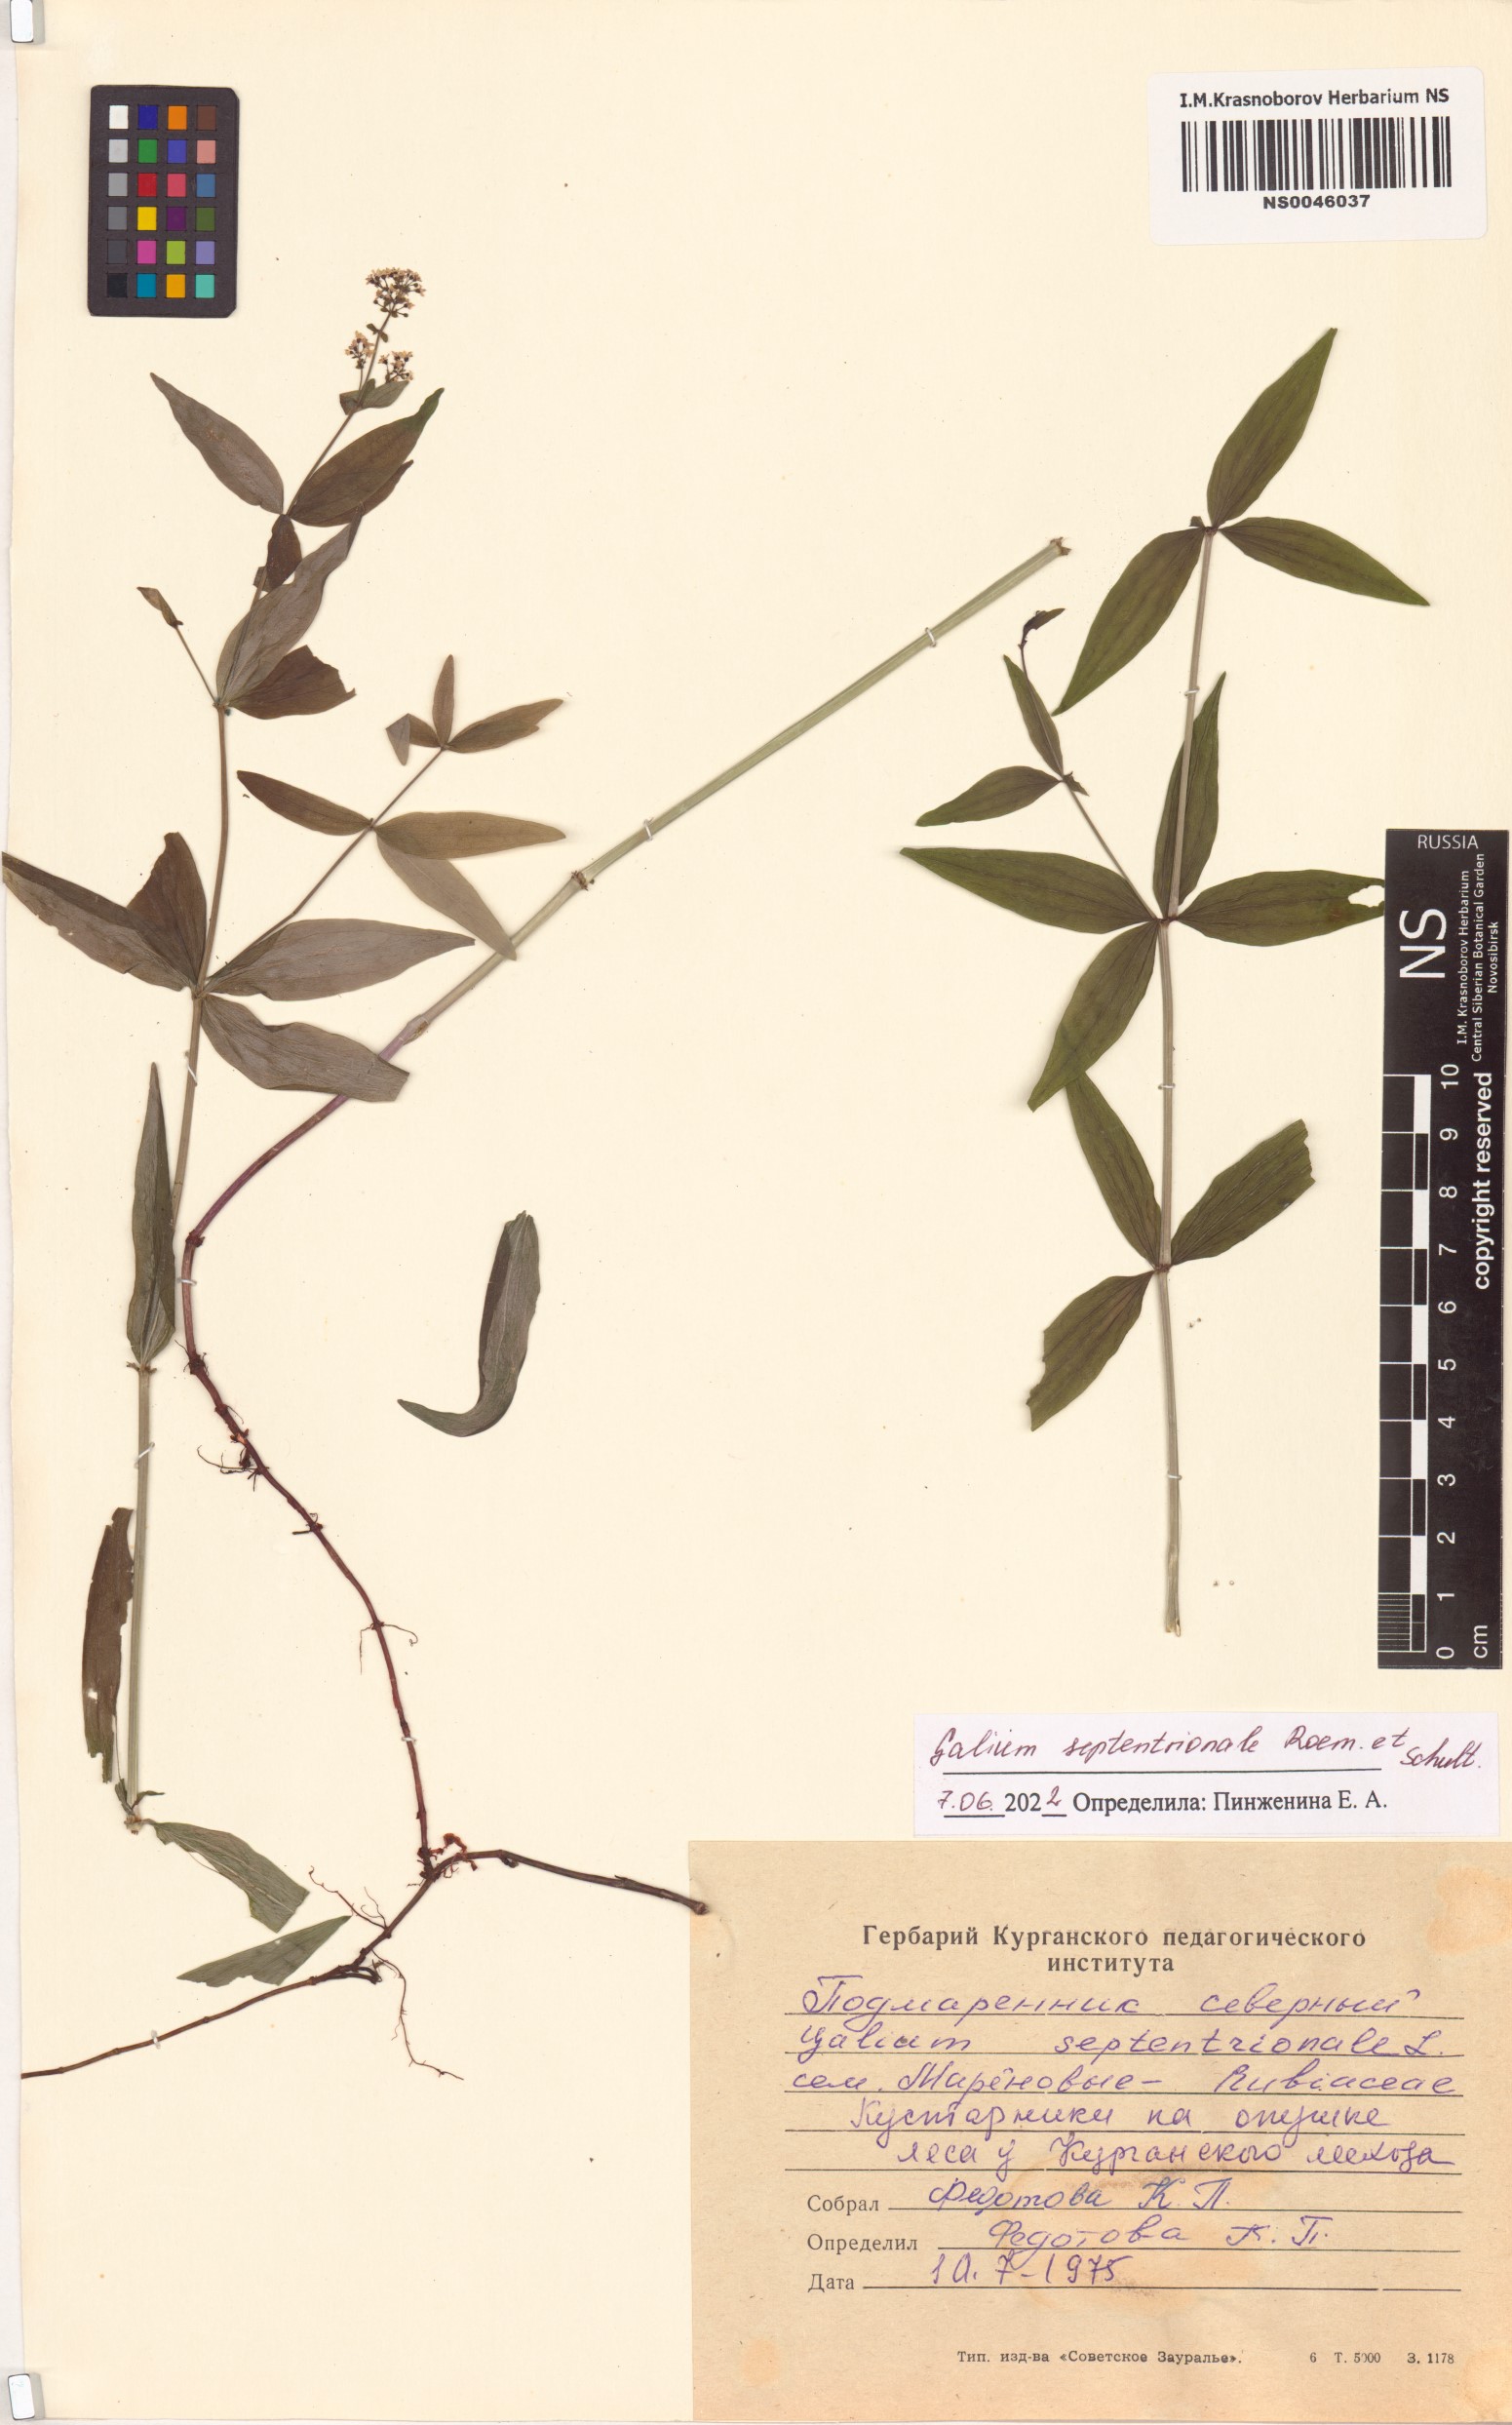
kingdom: Plantae
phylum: Tracheophyta
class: Magnoliopsida
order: Gentianales
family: Rubiaceae
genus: Galium
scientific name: Galium boreale
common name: Northern bedstraw
